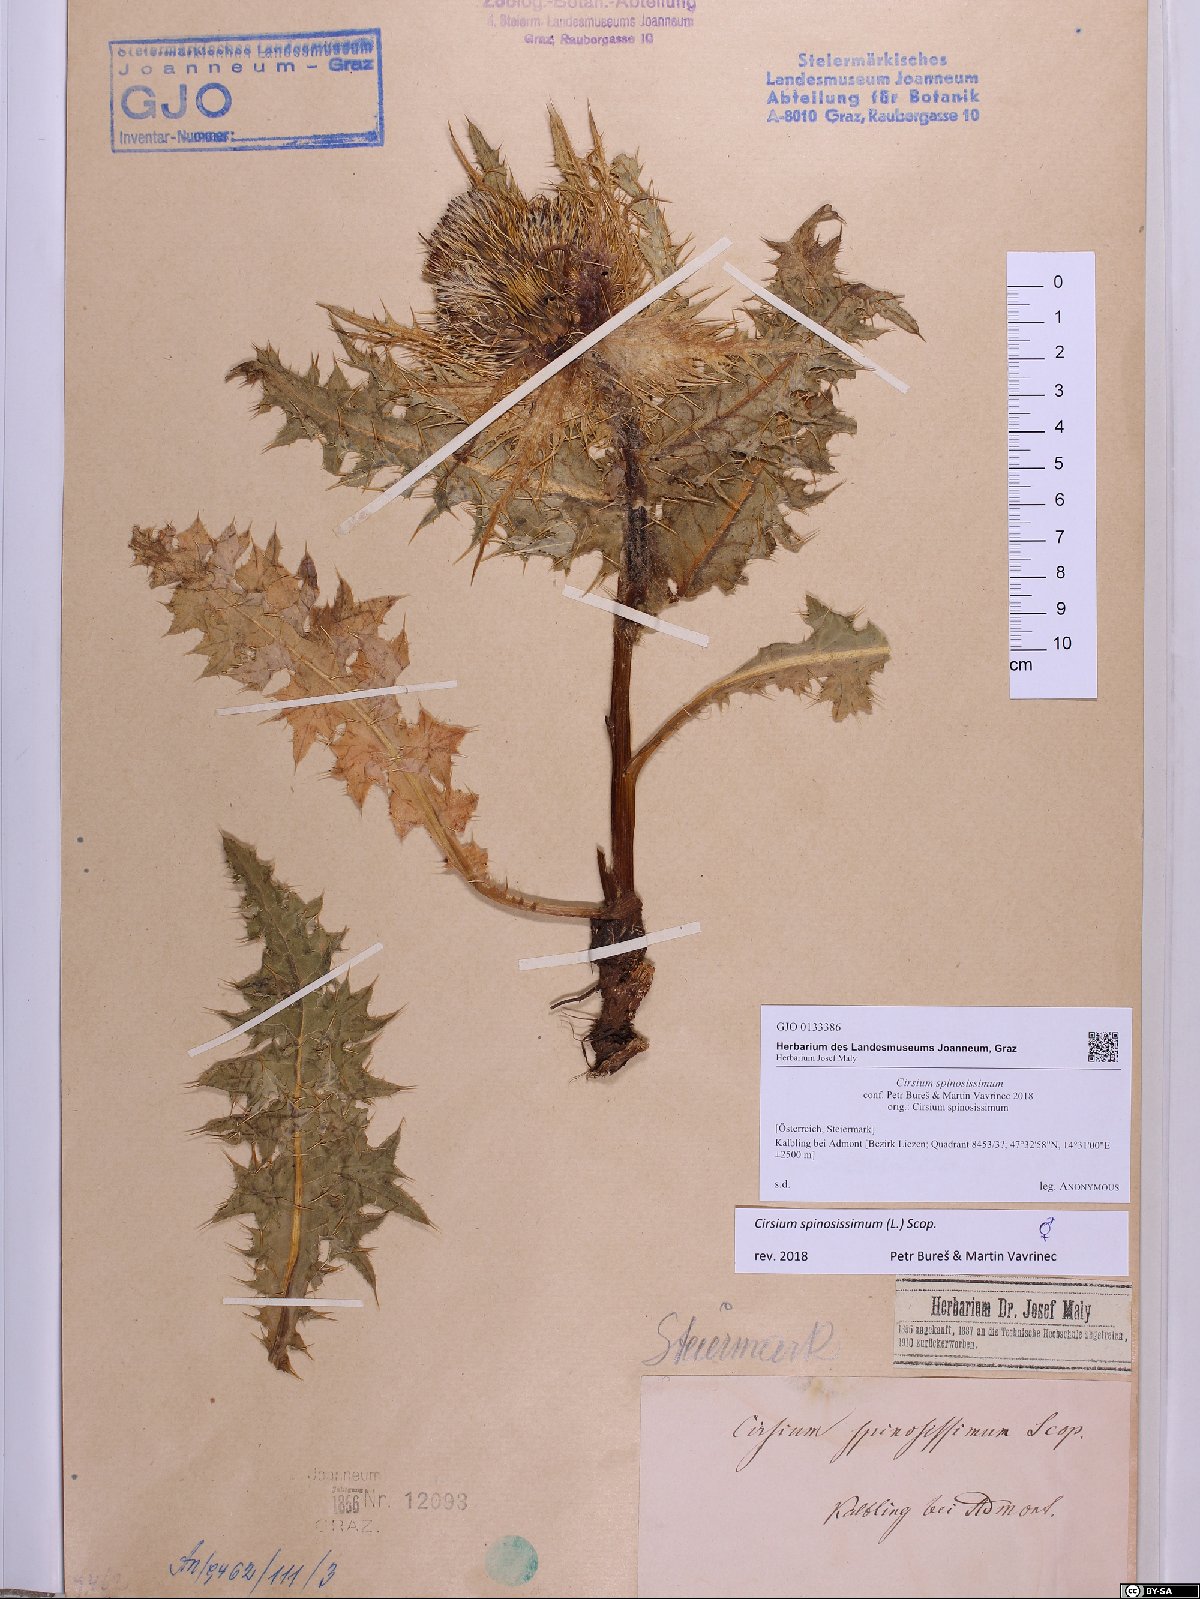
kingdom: Plantae
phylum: Tracheophyta
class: Magnoliopsida
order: Asterales
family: Asteraceae
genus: Cirsium
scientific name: Cirsium spinosissimum
